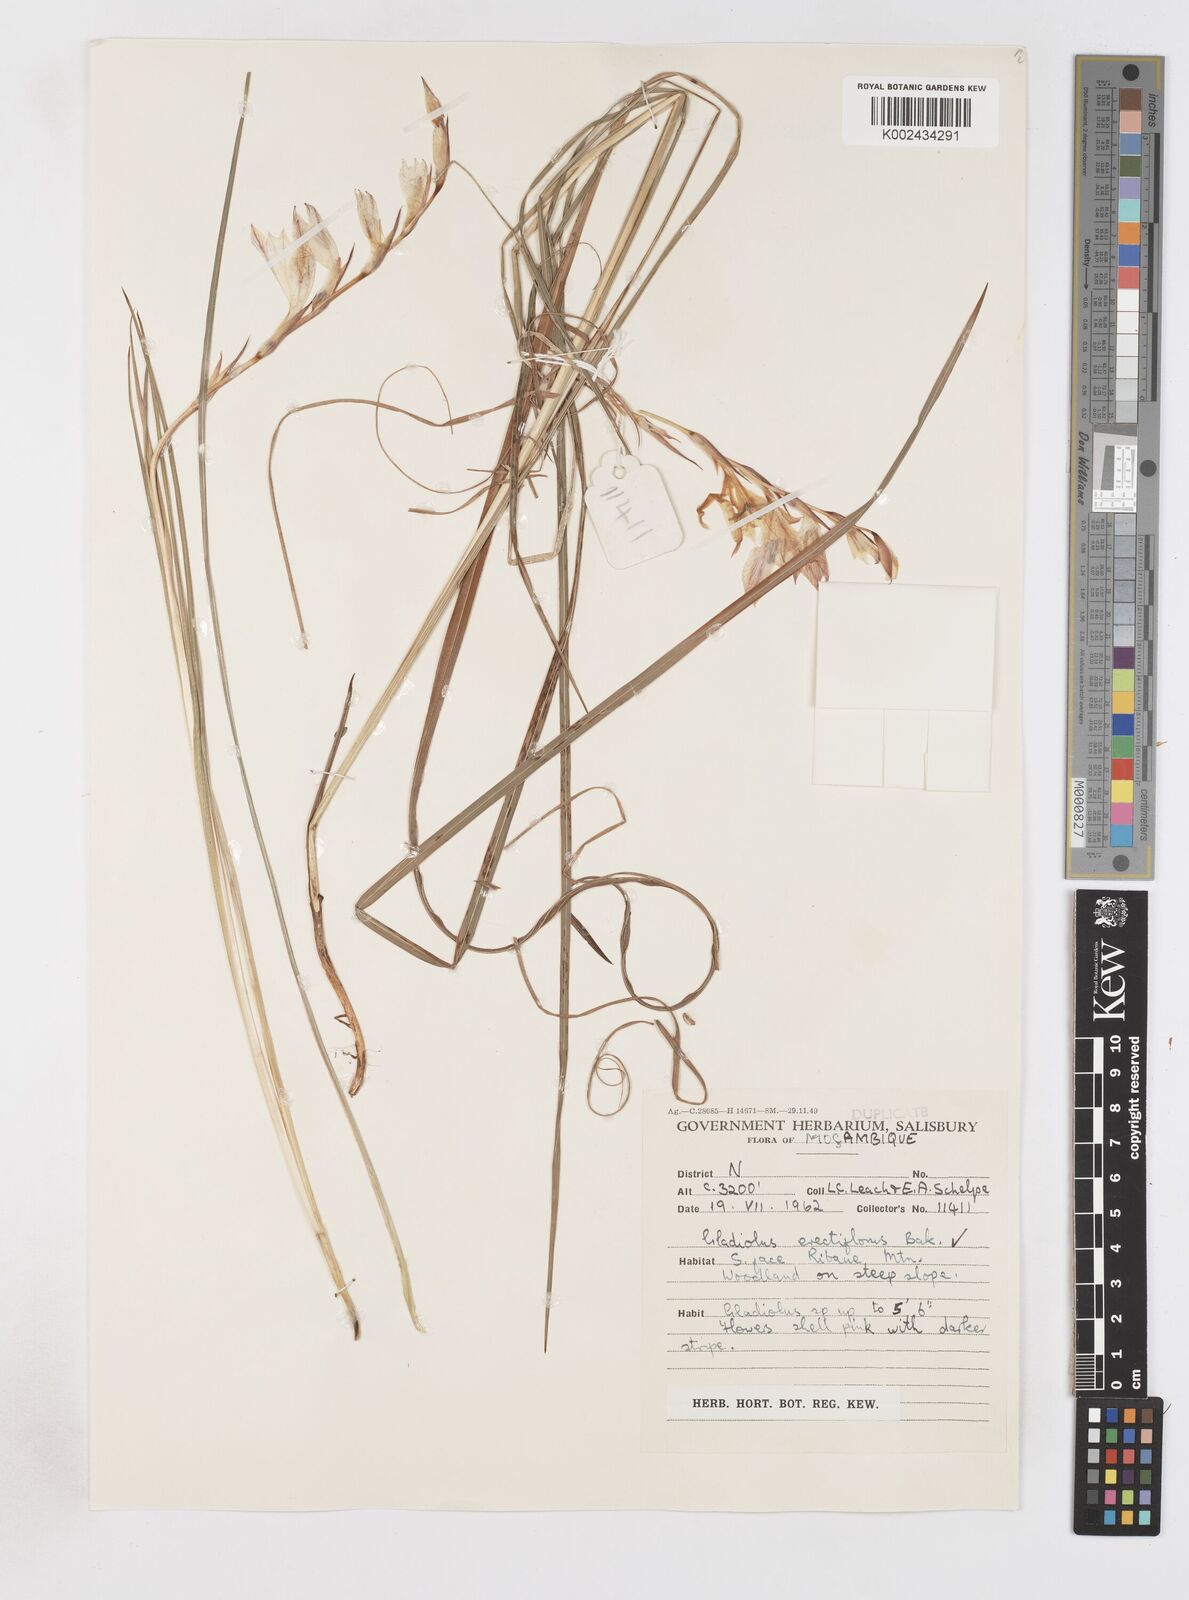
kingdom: Plantae
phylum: Tracheophyta
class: Liliopsida
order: Asparagales
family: Iridaceae
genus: Gladiolus
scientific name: Gladiolus erectiflorus
